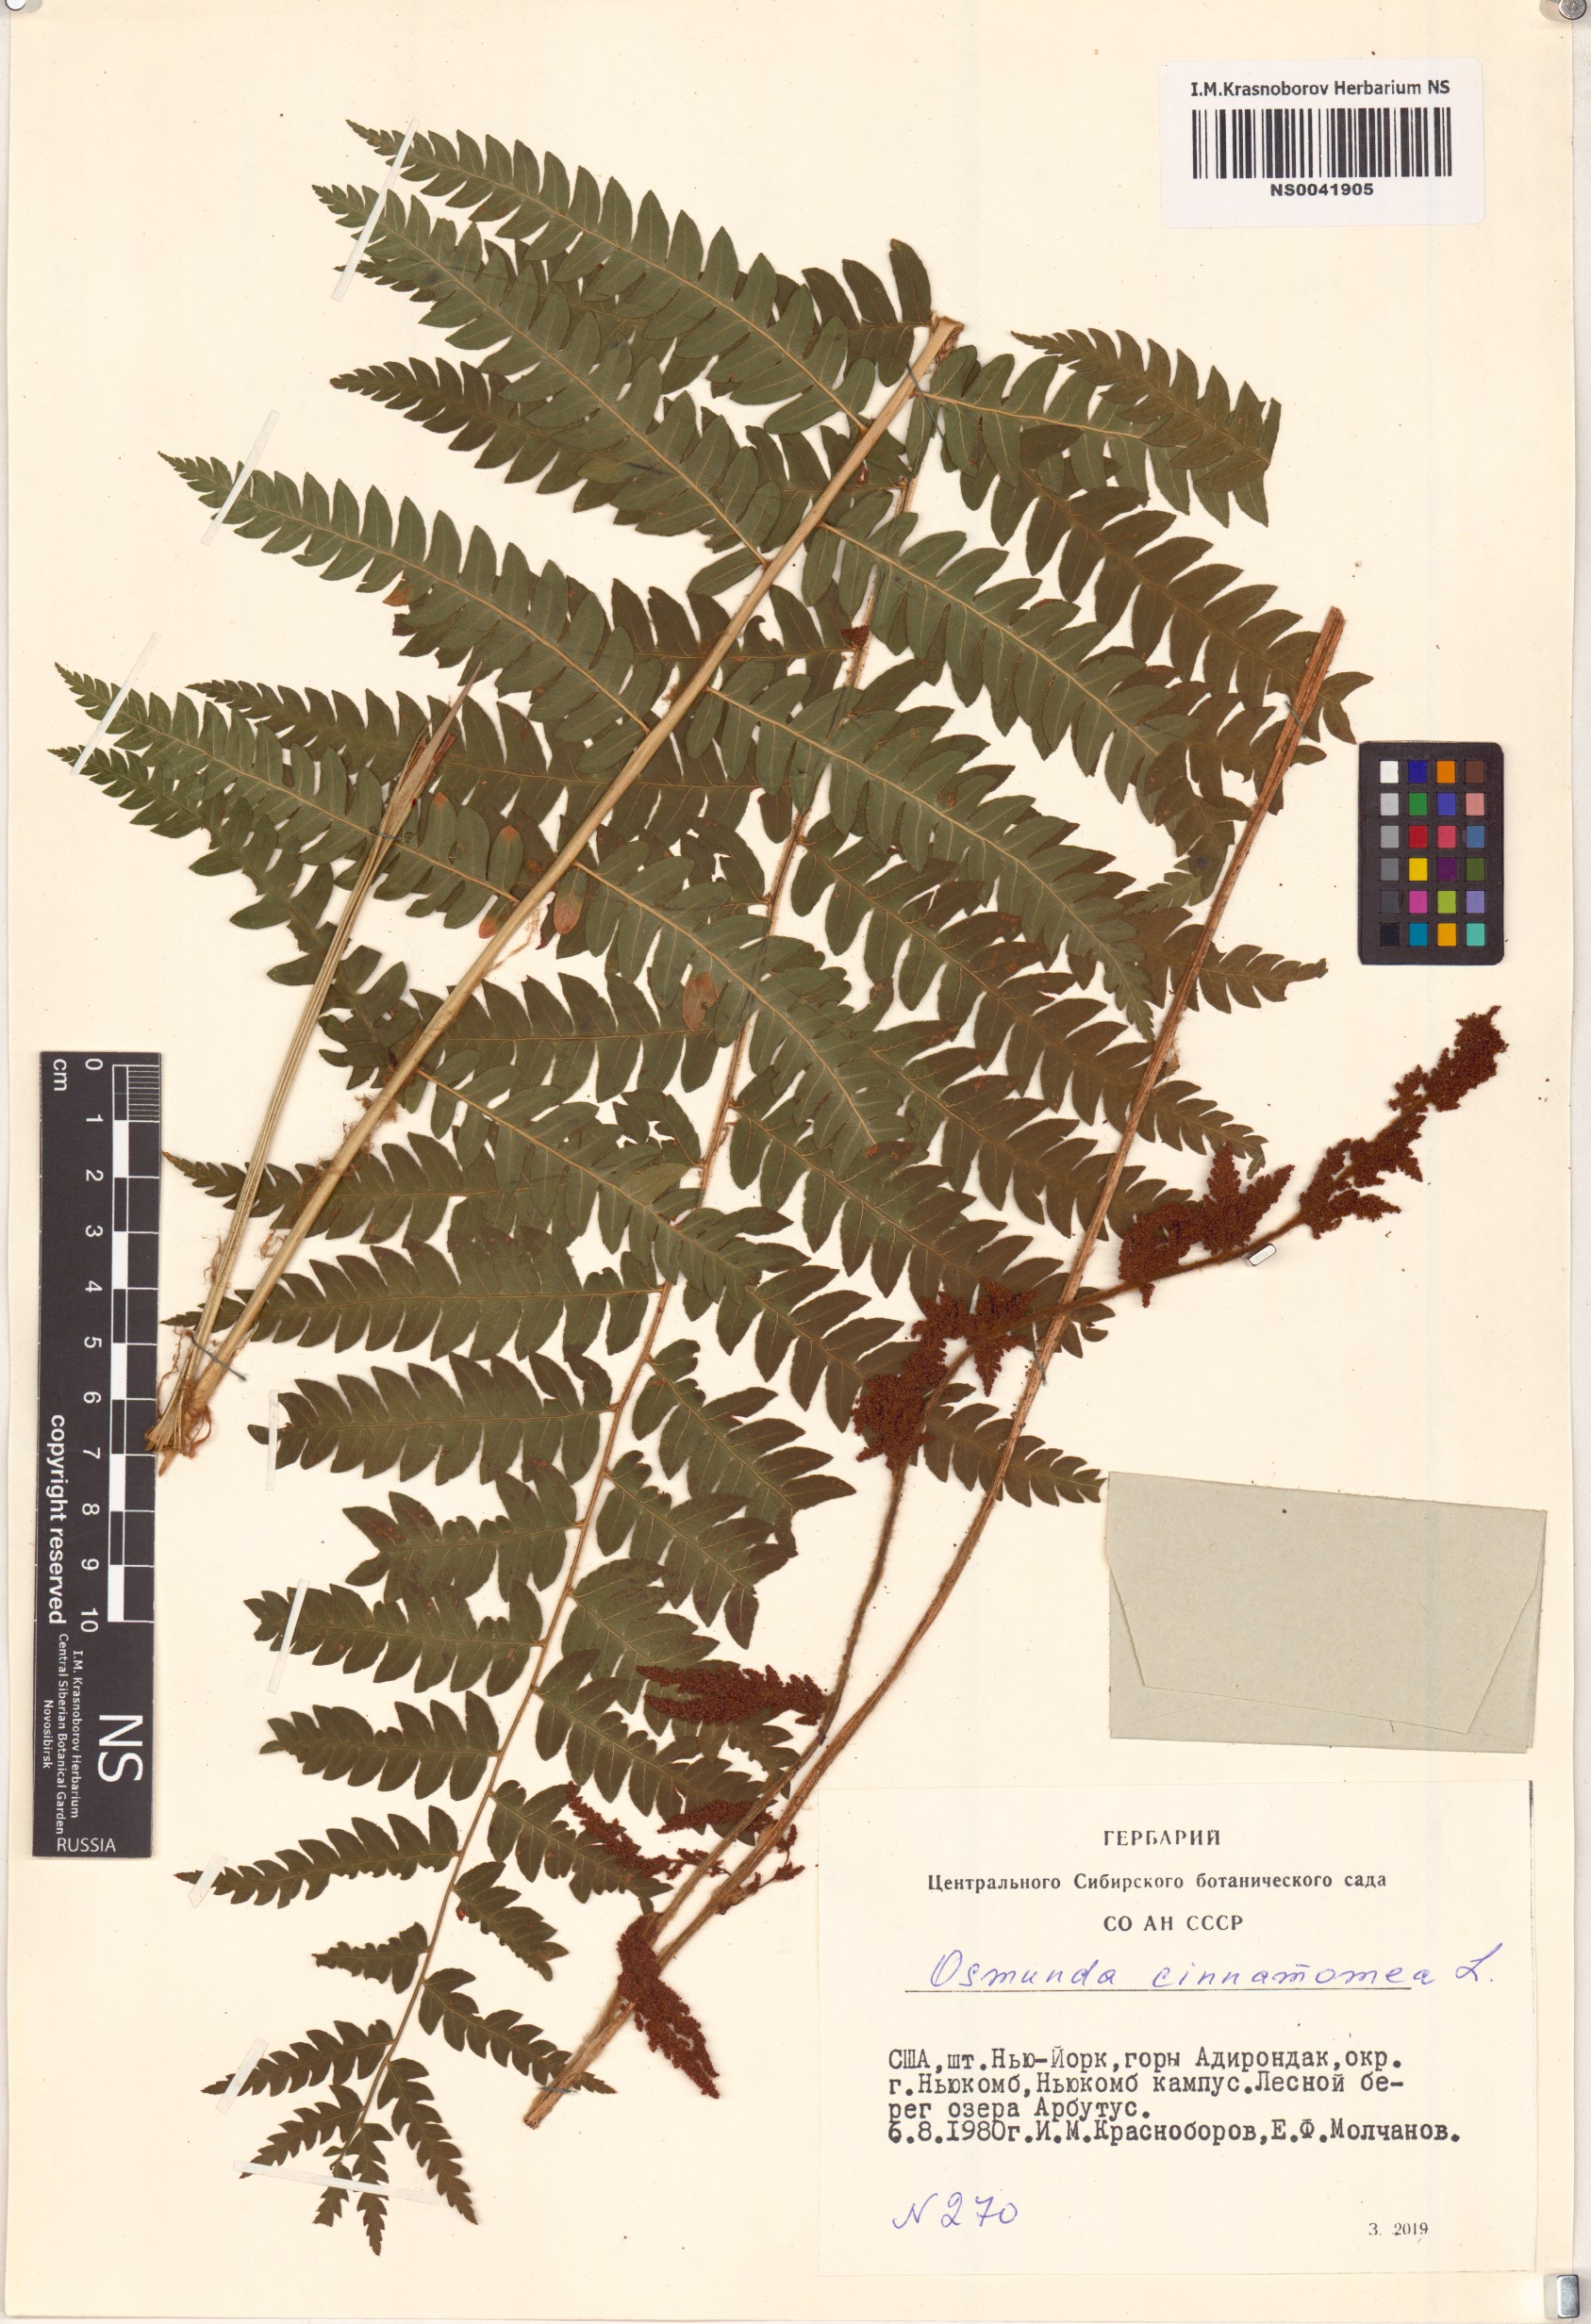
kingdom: Plantae
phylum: Tracheophyta
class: Polypodiopsida
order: Osmundales
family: Osmundaceae
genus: Osmundastrum
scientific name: Osmundastrum cinnamomeum
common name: Cinnamon fern
